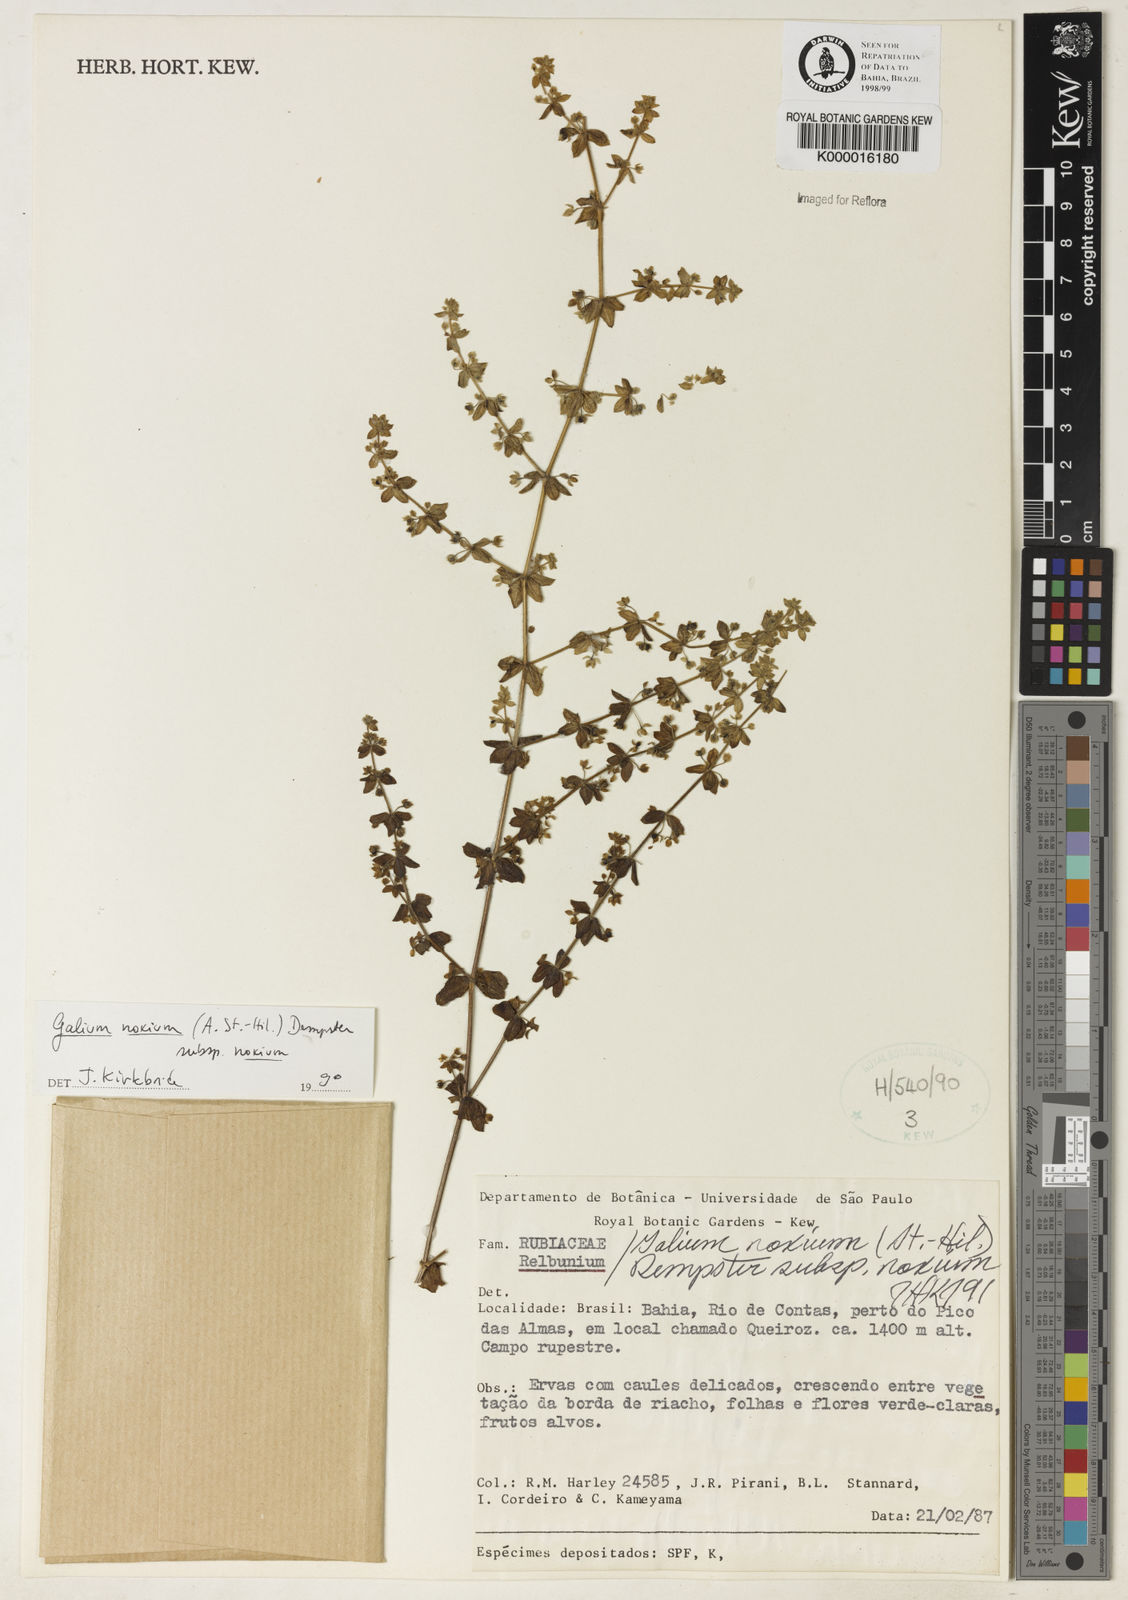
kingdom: Plantae
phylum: Tracheophyta
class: Magnoliopsida
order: Gentianales
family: Rubiaceae
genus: Galium
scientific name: Galium noxium
